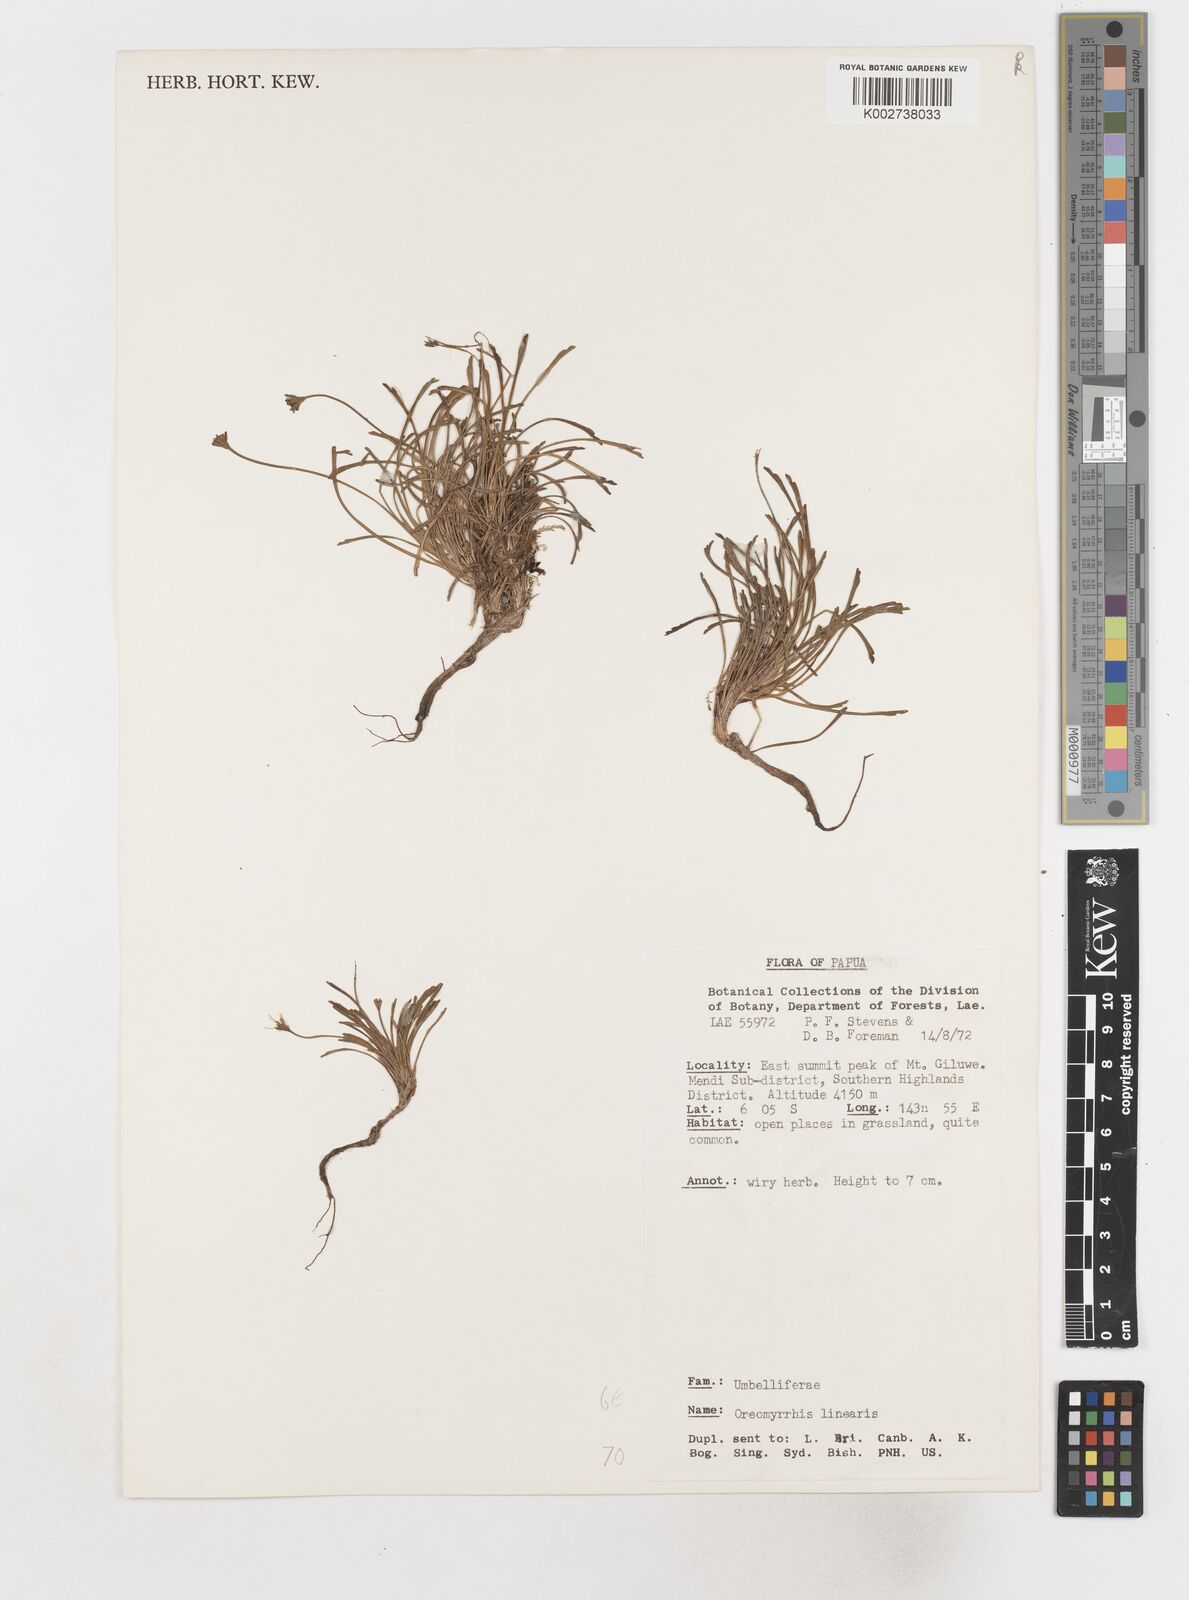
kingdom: Plantae
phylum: Tracheophyta
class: Magnoliopsida
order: Apiales
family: Apiaceae
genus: Chaerophyllum
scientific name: Chaerophyllum lineare
